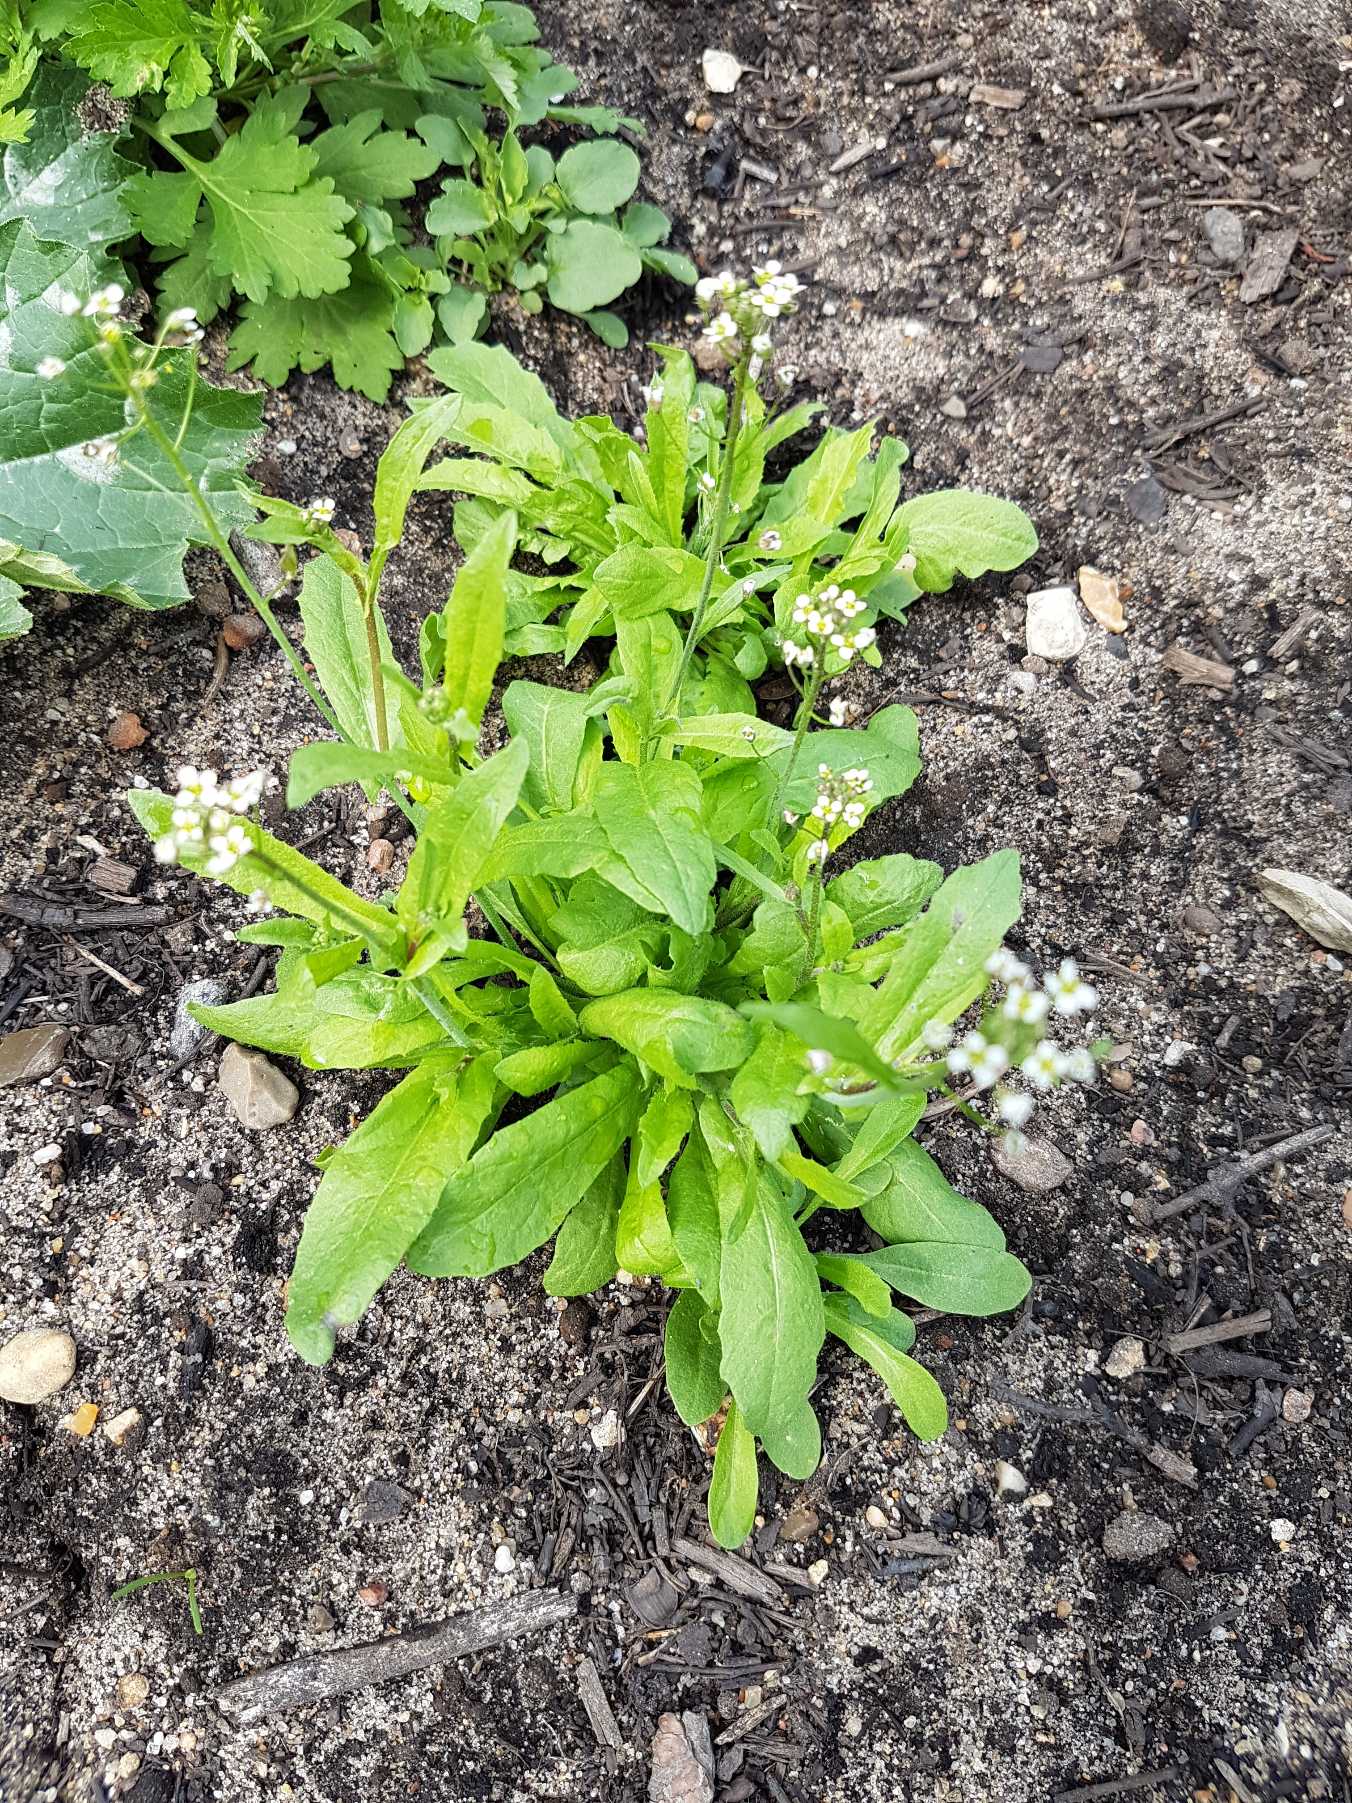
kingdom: Plantae
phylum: Tracheophyta
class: Magnoliopsida
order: Brassicales
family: Brassicaceae
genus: Capsella
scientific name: Capsella bursa-pastoris
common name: Hyrdetaske
